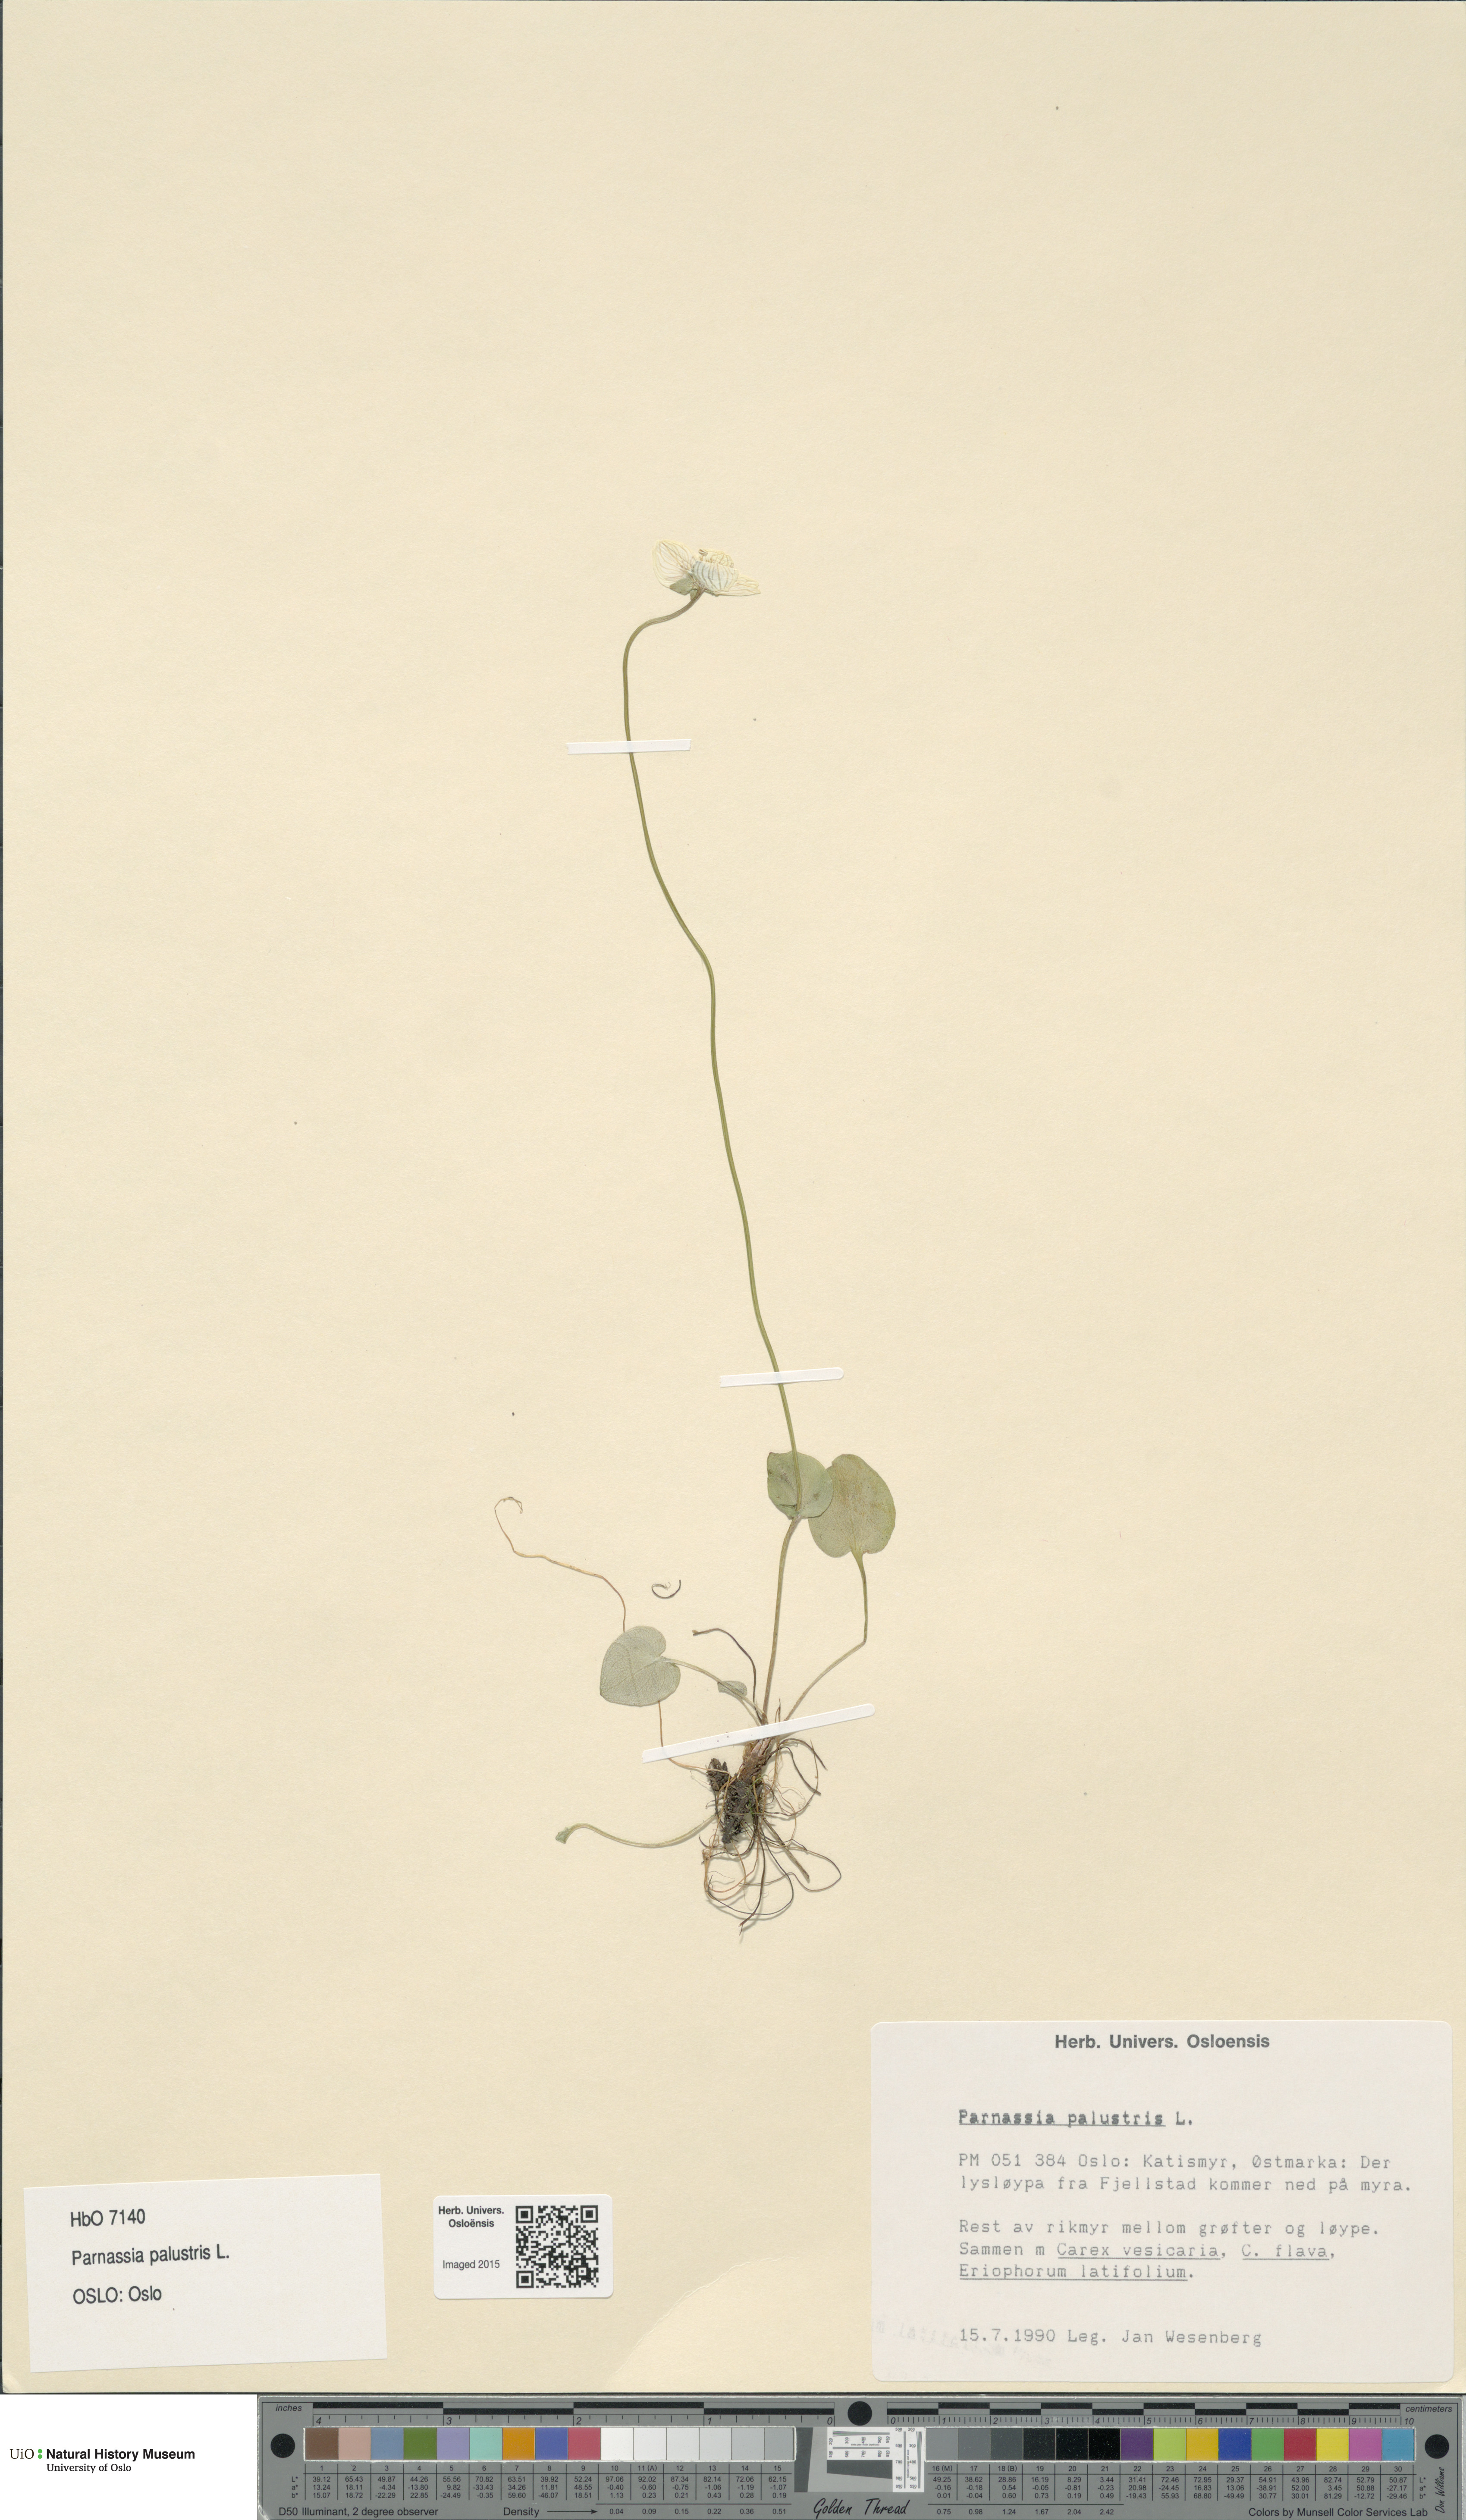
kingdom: Plantae
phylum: Tracheophyta
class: Magnoliopsida
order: Celastrales
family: Parnassiaceae
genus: Parnassia
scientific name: Parnassia palustris
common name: Grass-of-parnassus
